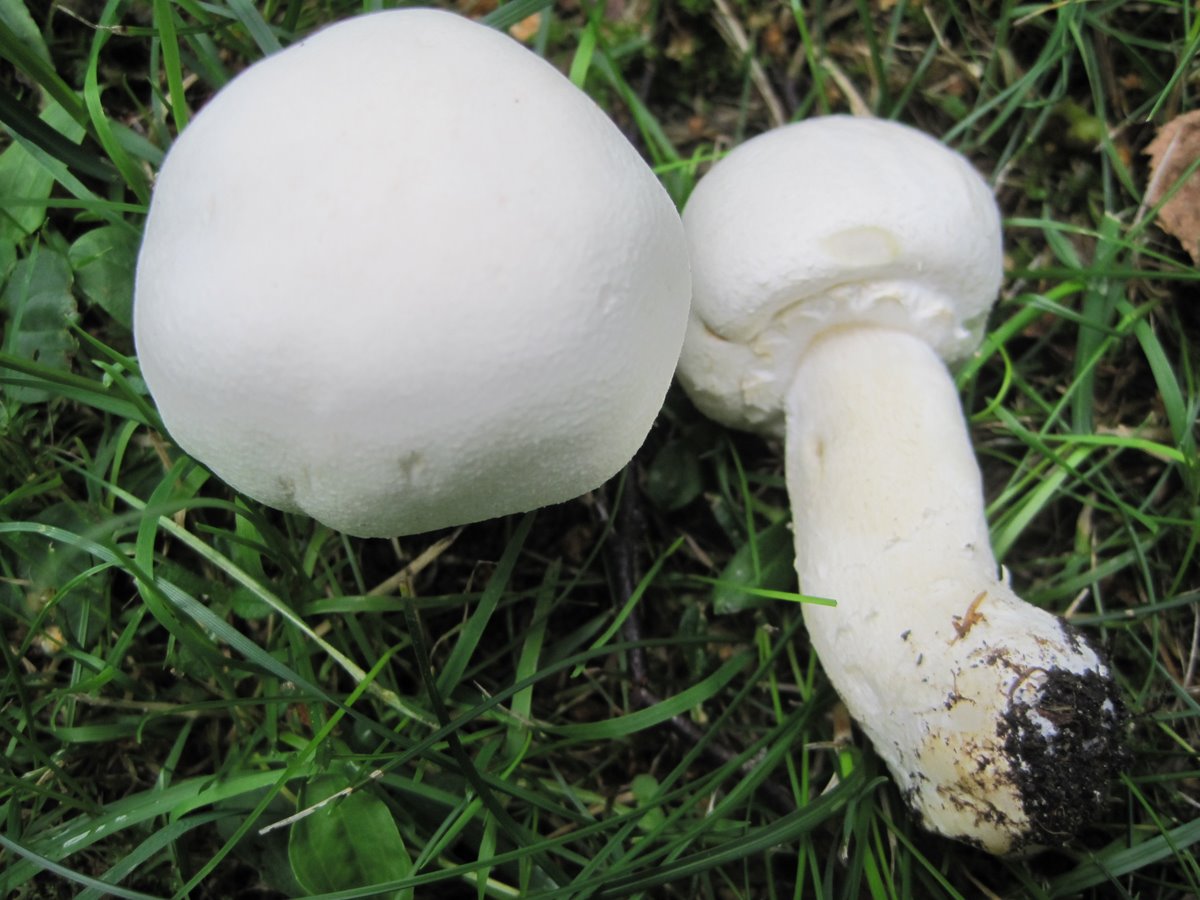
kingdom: Fungi
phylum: Basidiomycota
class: Agaricomycetes
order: Agaricales
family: Agaricaceae
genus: Agaricus
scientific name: Agaricus arvensis
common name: ager-champignon
